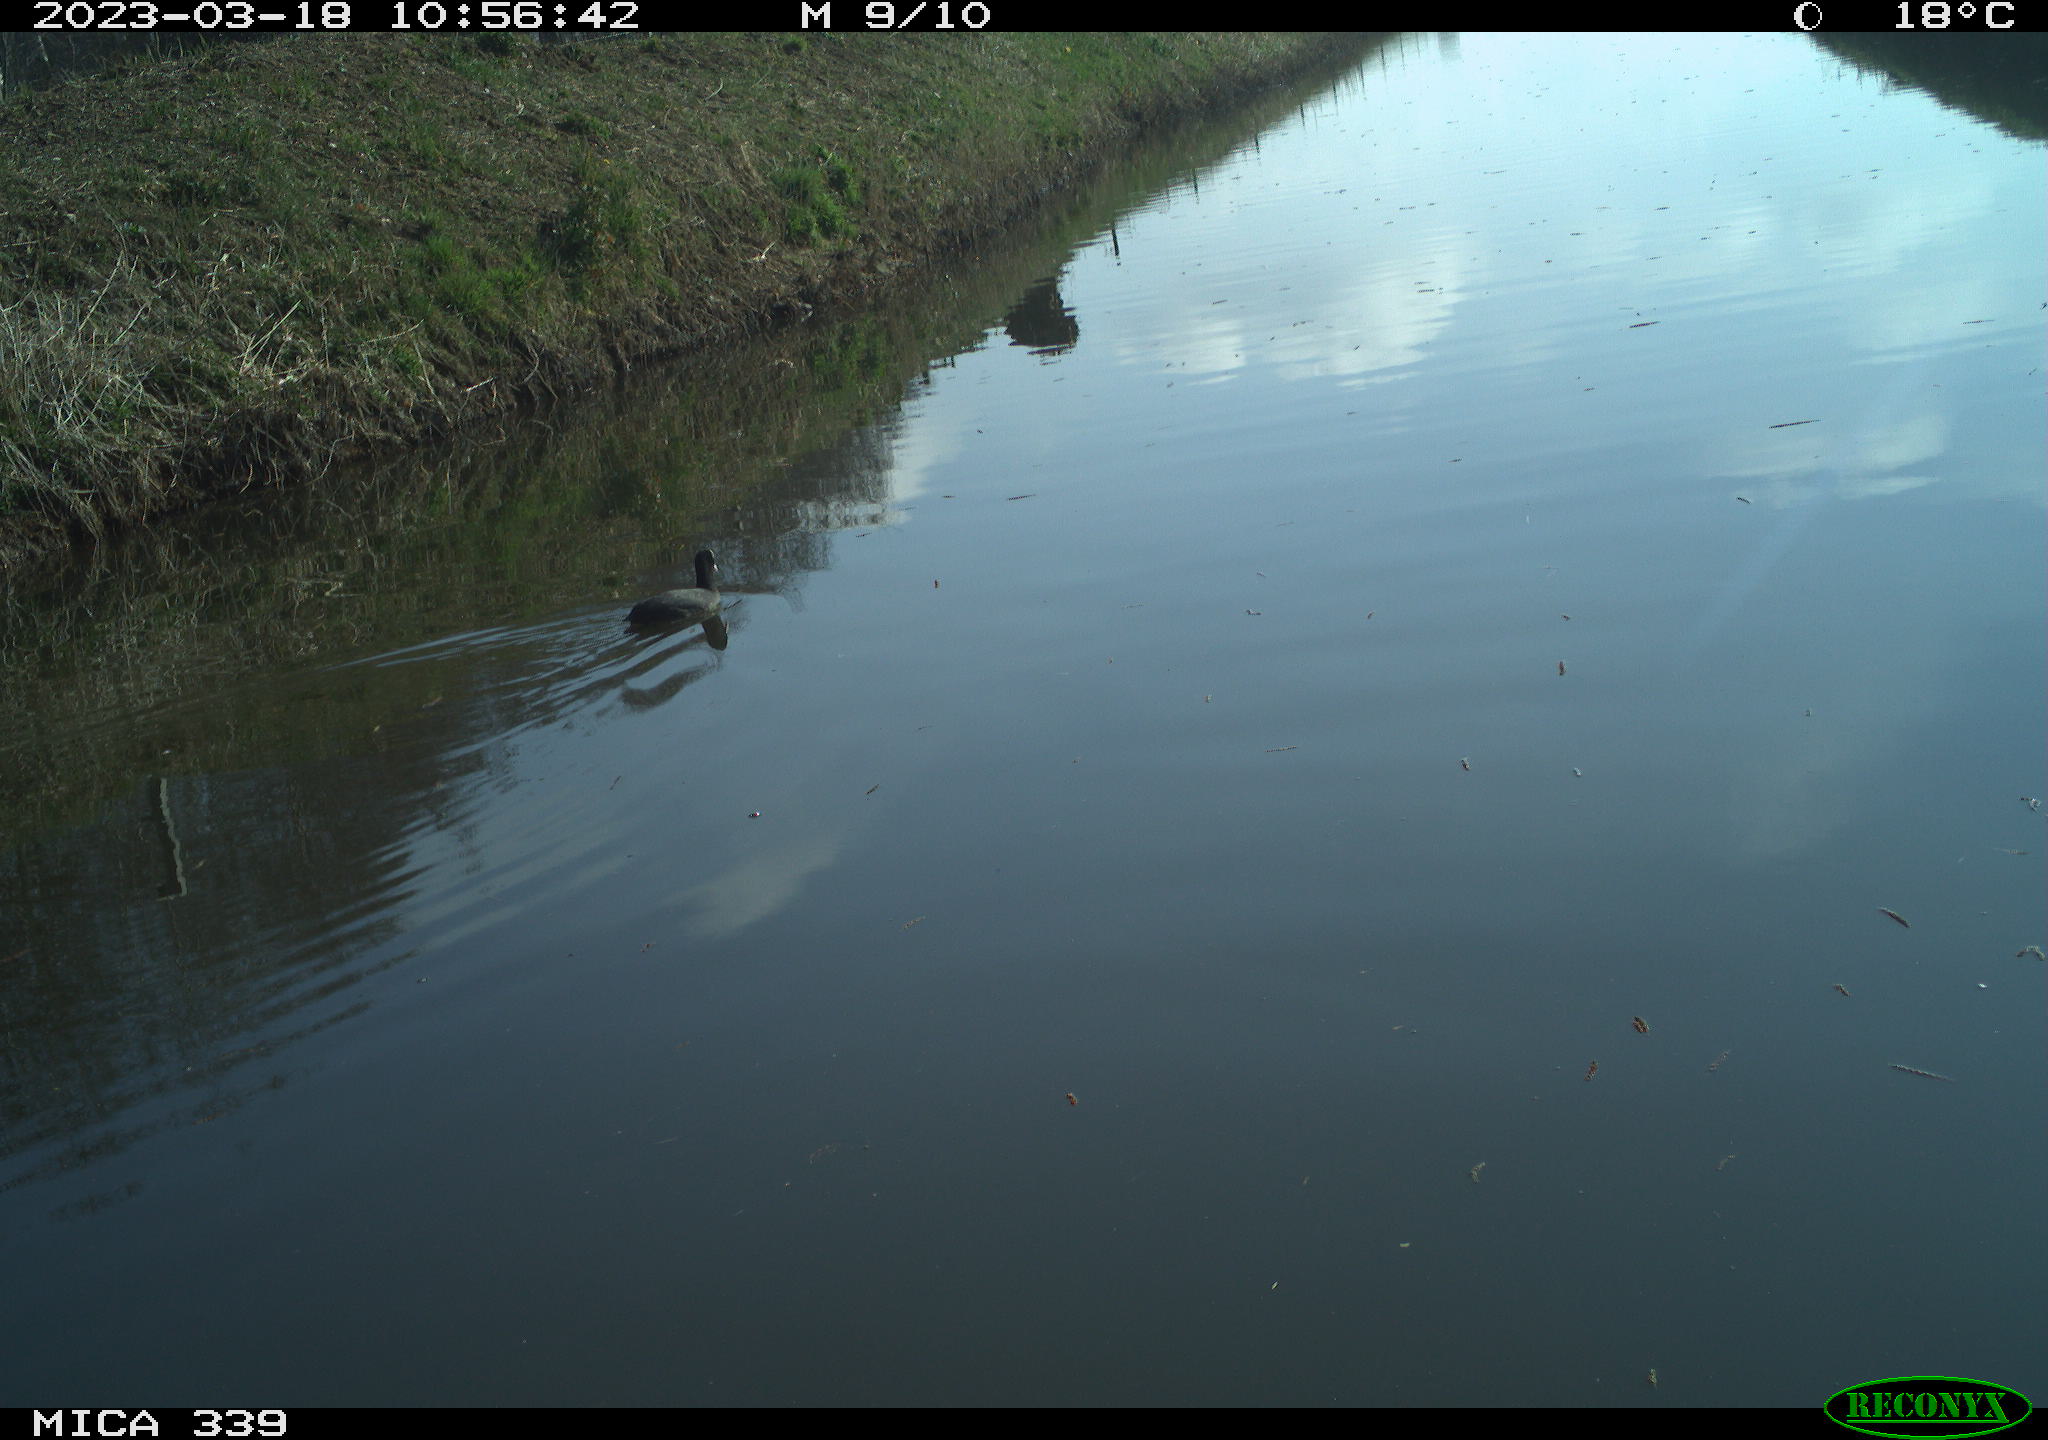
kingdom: Animalia
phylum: Chordata
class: Aves
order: Anseriformes
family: Anatidae
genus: Anas
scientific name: Anas
